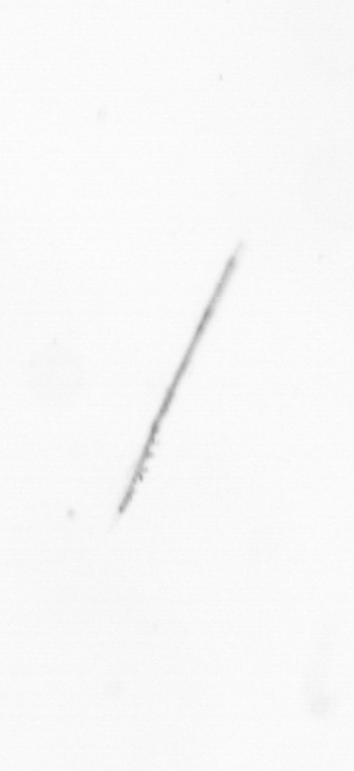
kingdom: Chromista
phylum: Ochrophyta
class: Bacillariophyceae
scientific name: Bacillariophyceae
